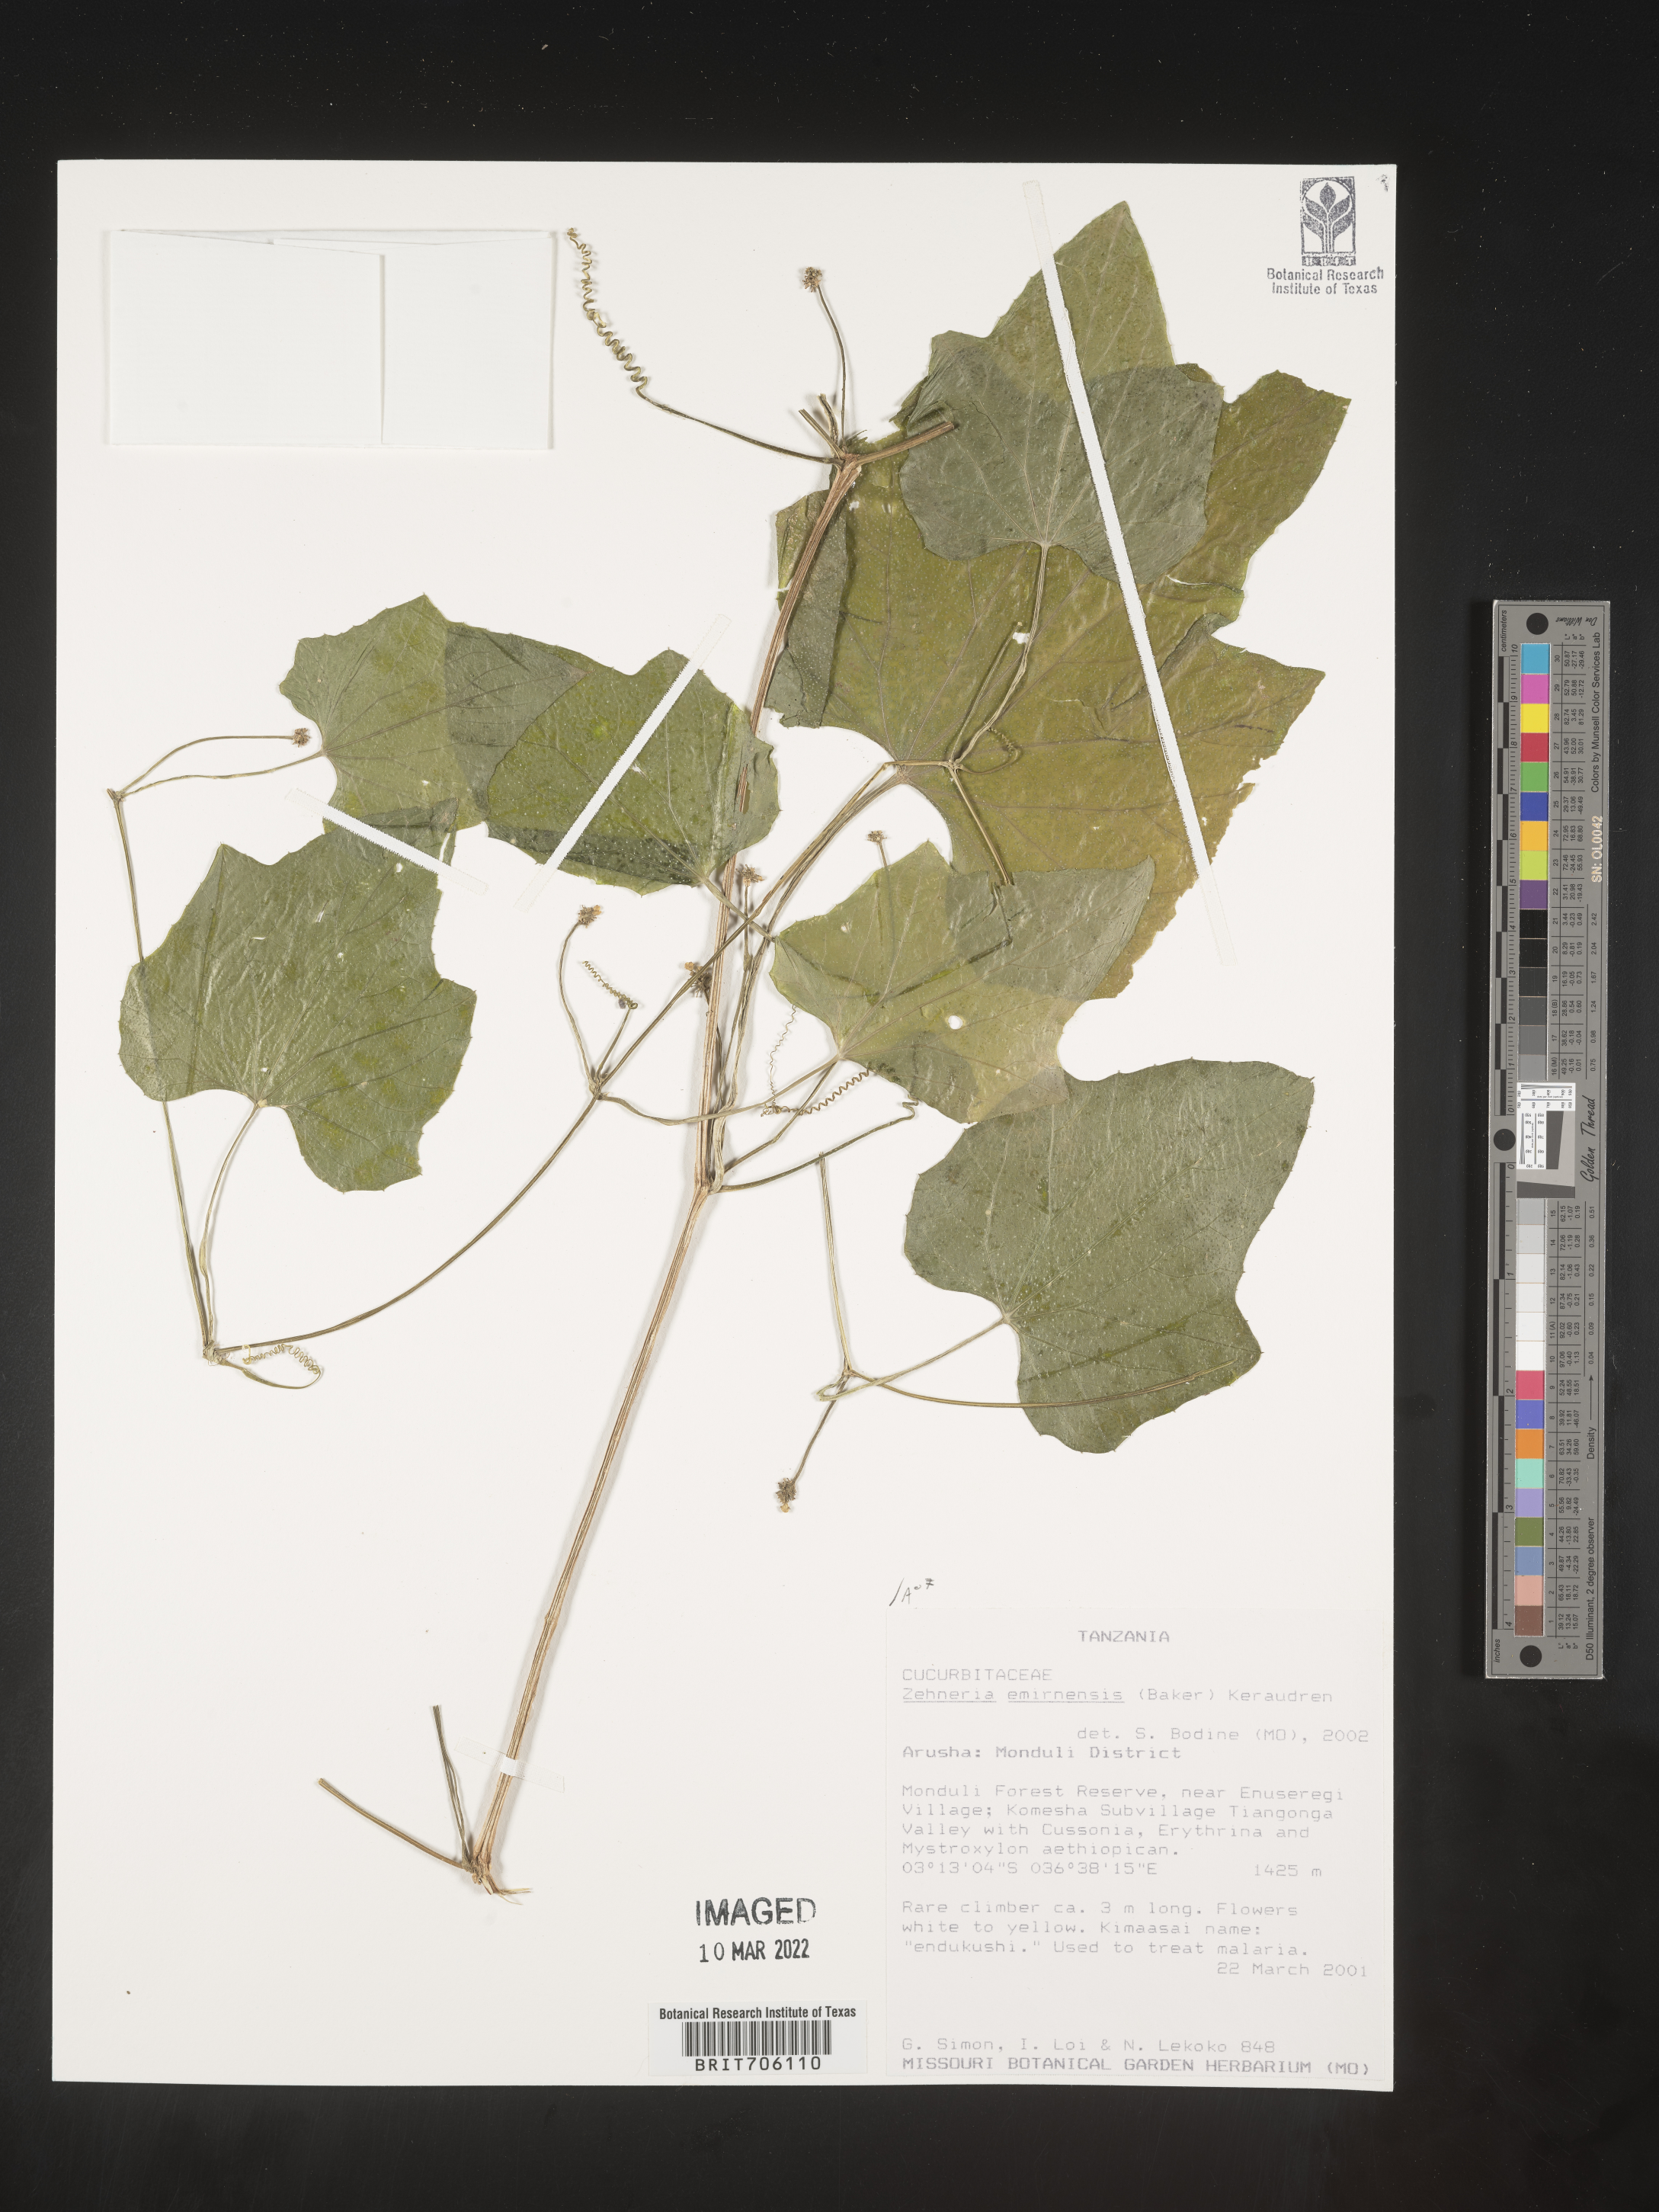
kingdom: Plantae
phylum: Tracheophyta
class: Magnoliopsida
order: Cucurbitales
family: Cucurbitaceae
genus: Zehneria
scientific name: Zehneria
